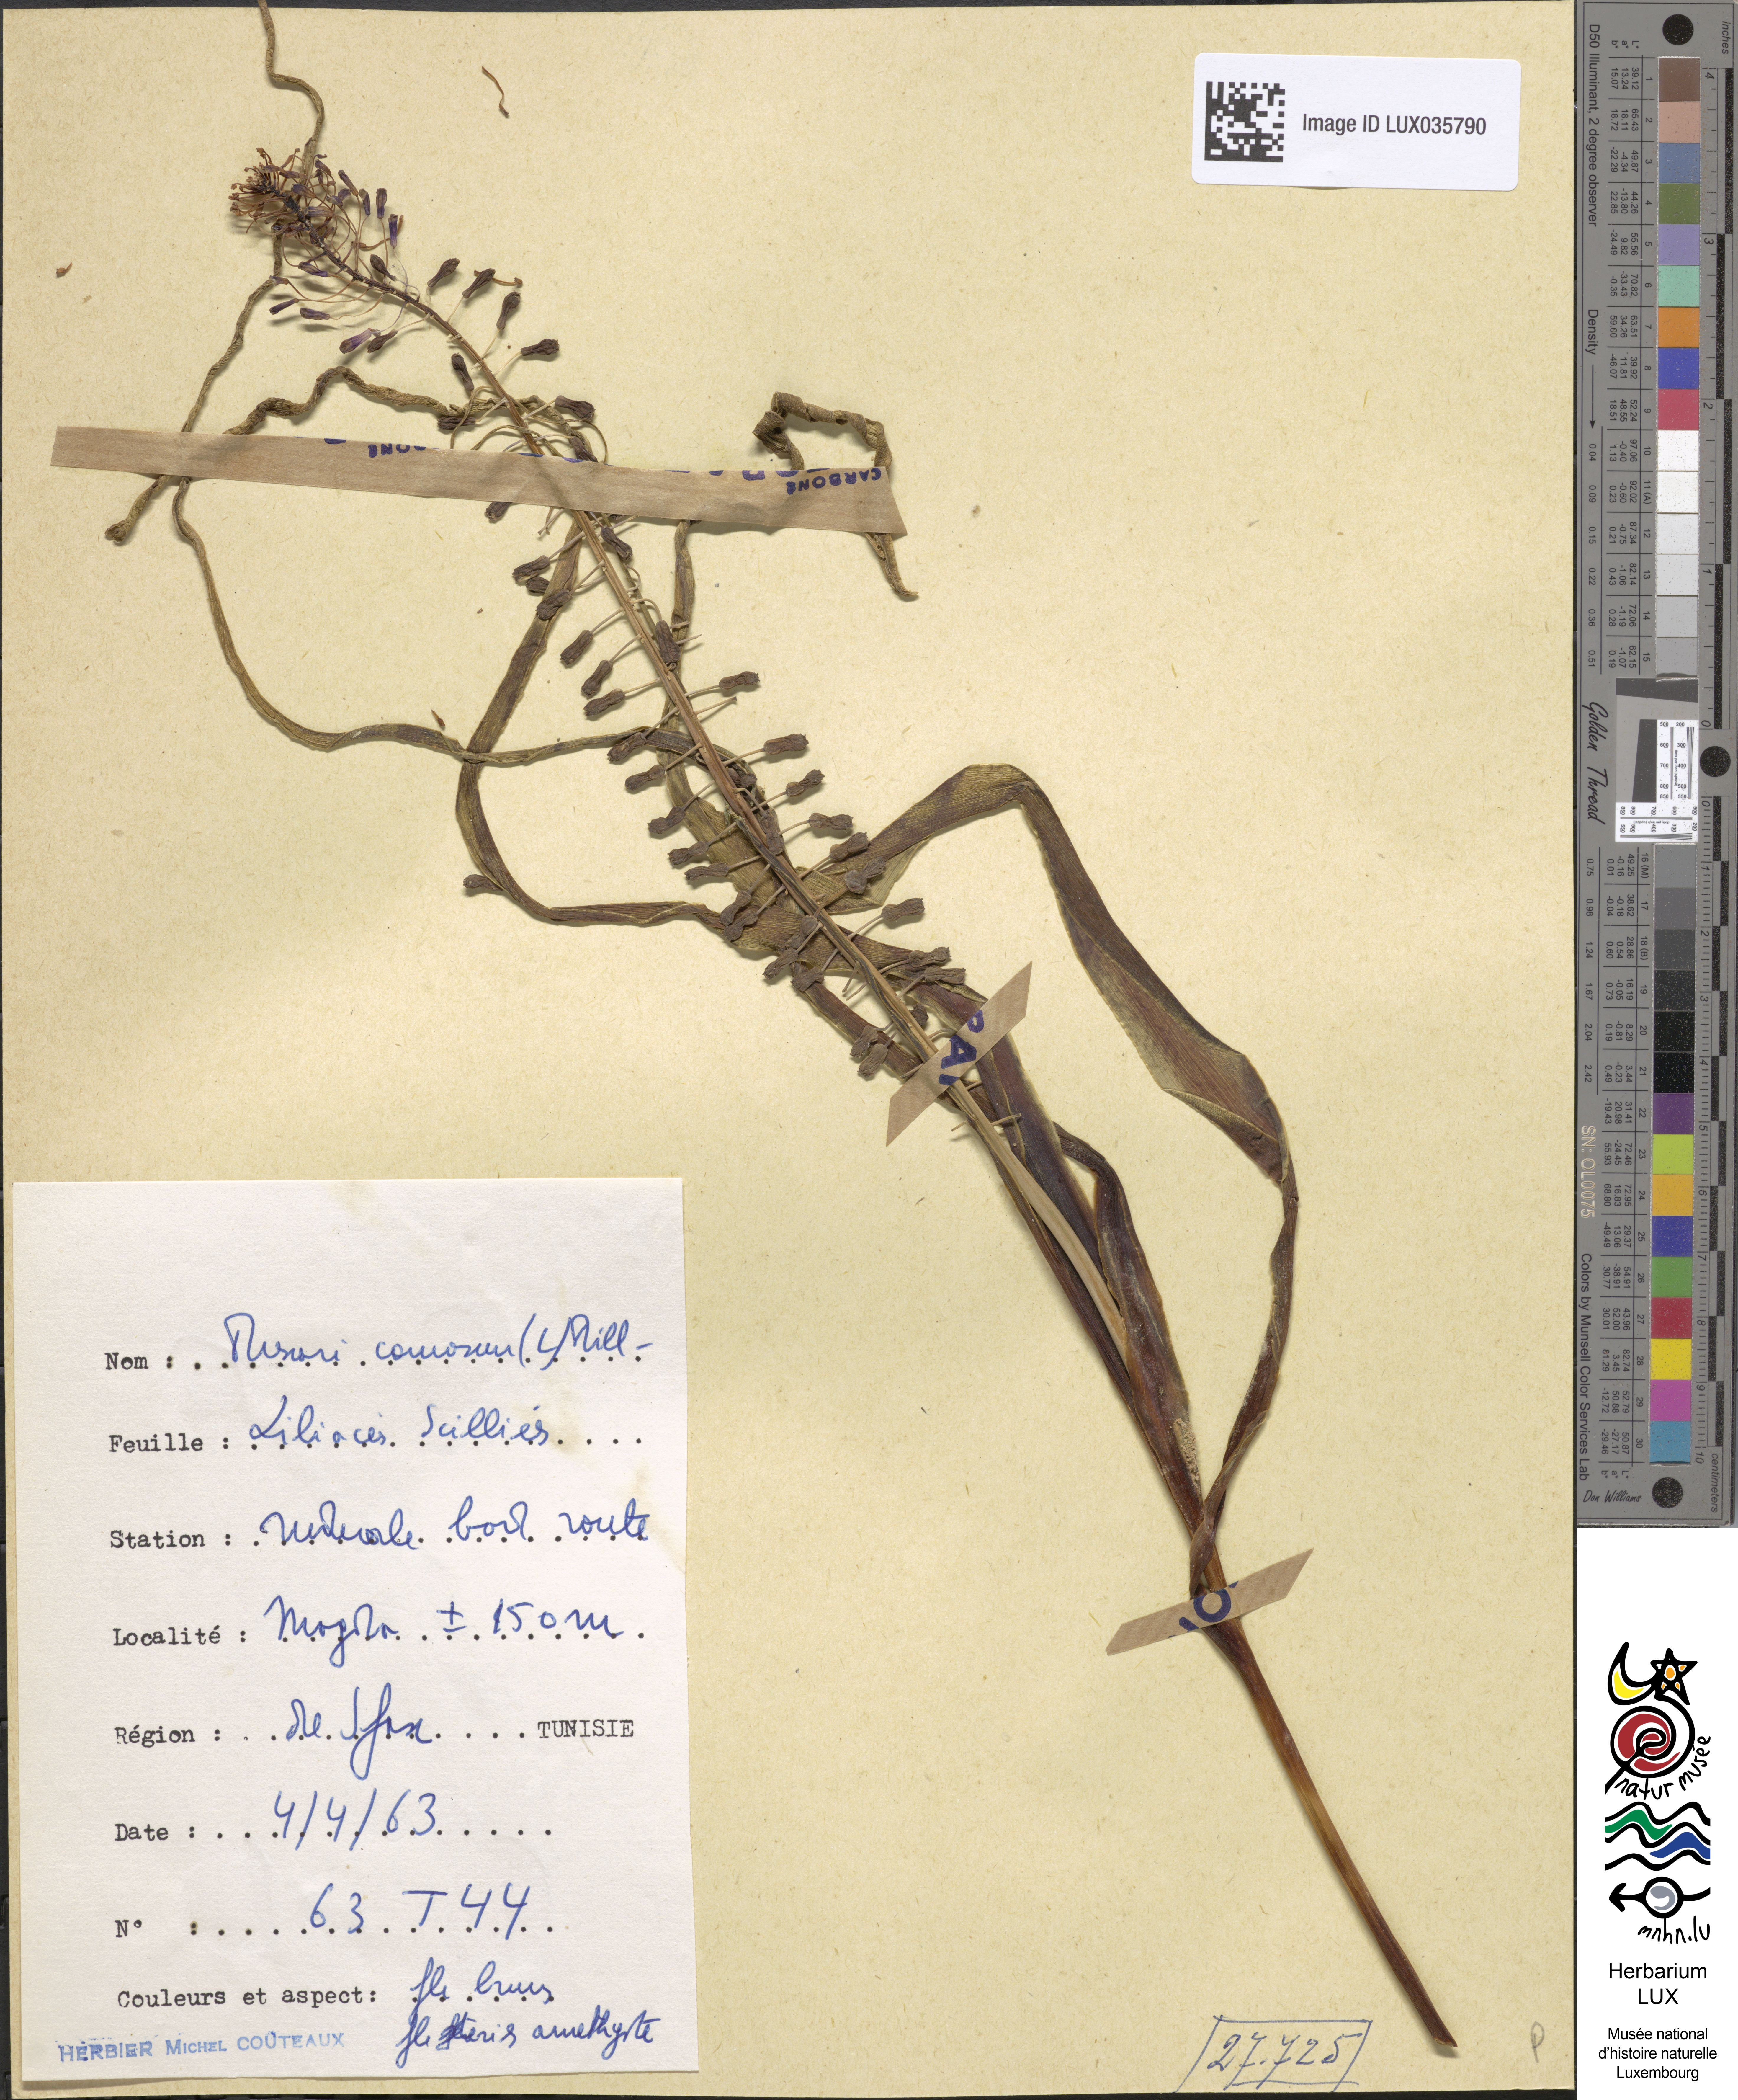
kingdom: Plantae
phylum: Tracheophyta
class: Liliopsida
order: Asparagales
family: Asparagaceae
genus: Muscari
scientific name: Muscari comosum
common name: Tassel hyacinth
